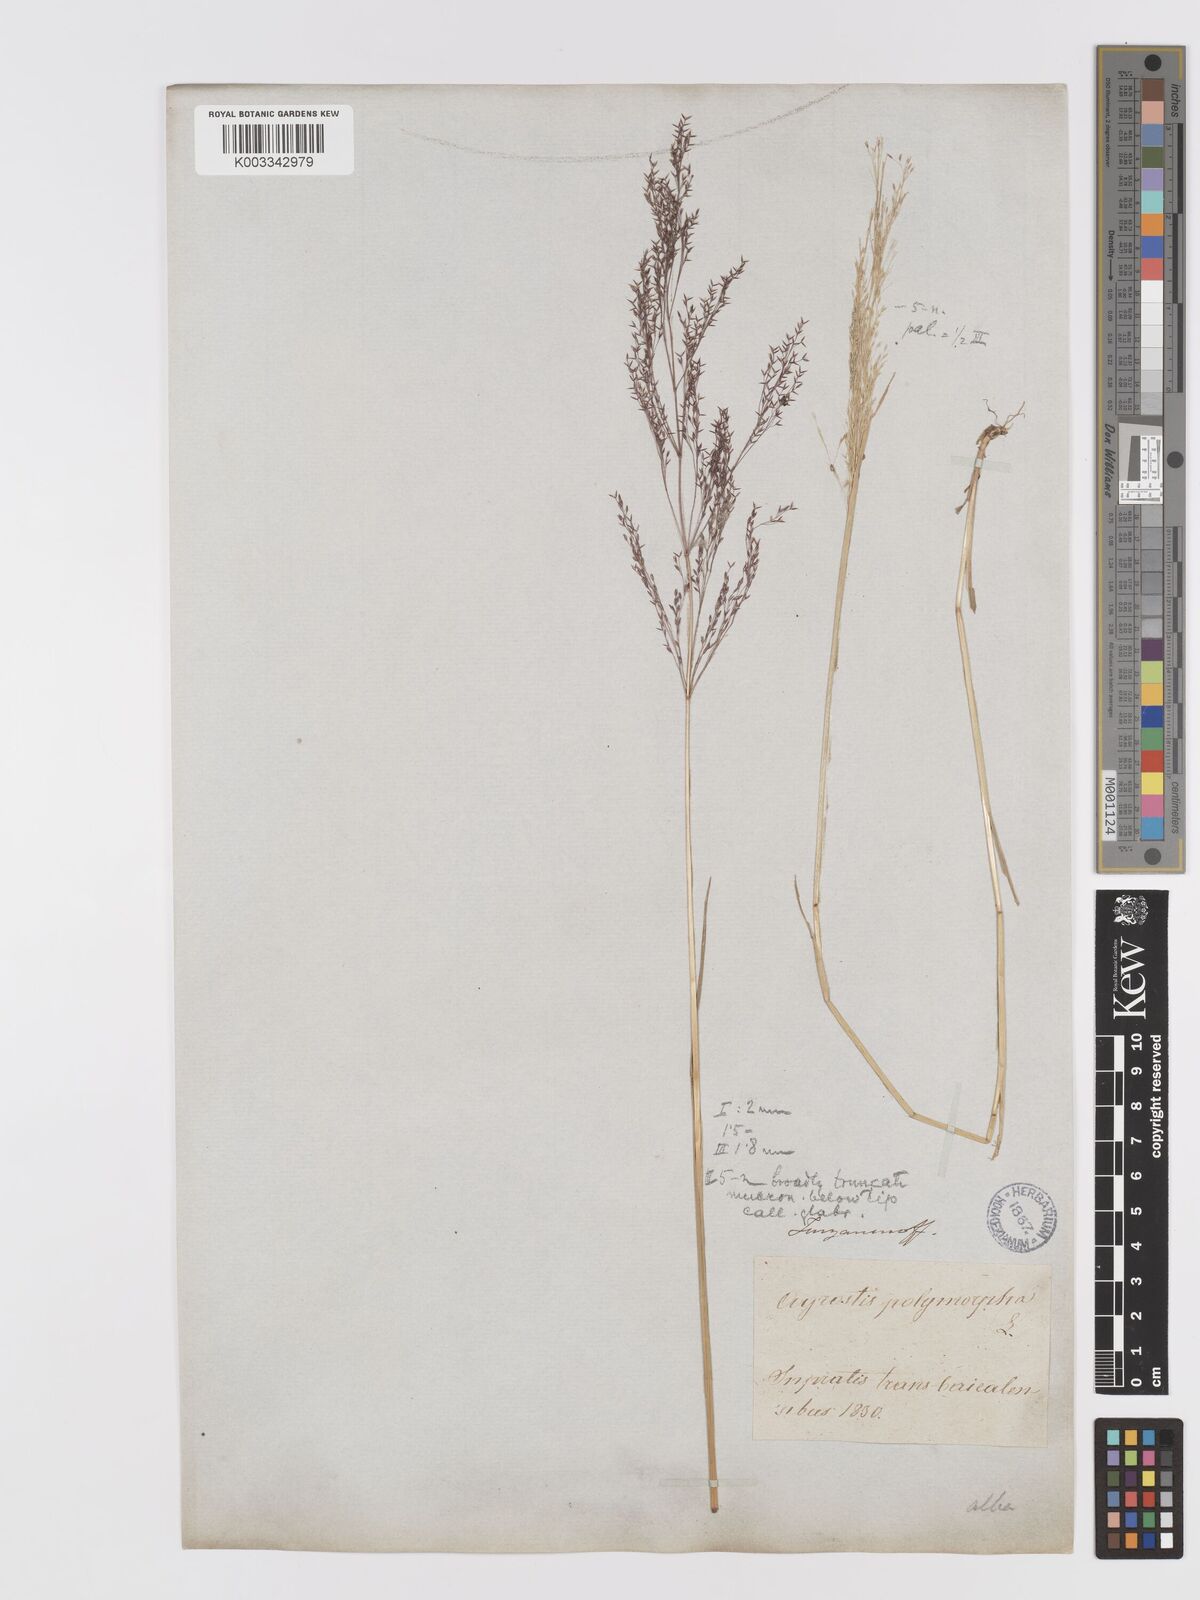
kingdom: Plantae
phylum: Tracheophyta
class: Liliopsida
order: Poales
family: Poaceae
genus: Agrostis
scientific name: Agrostis stolonifera
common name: Creeping bentgrass
